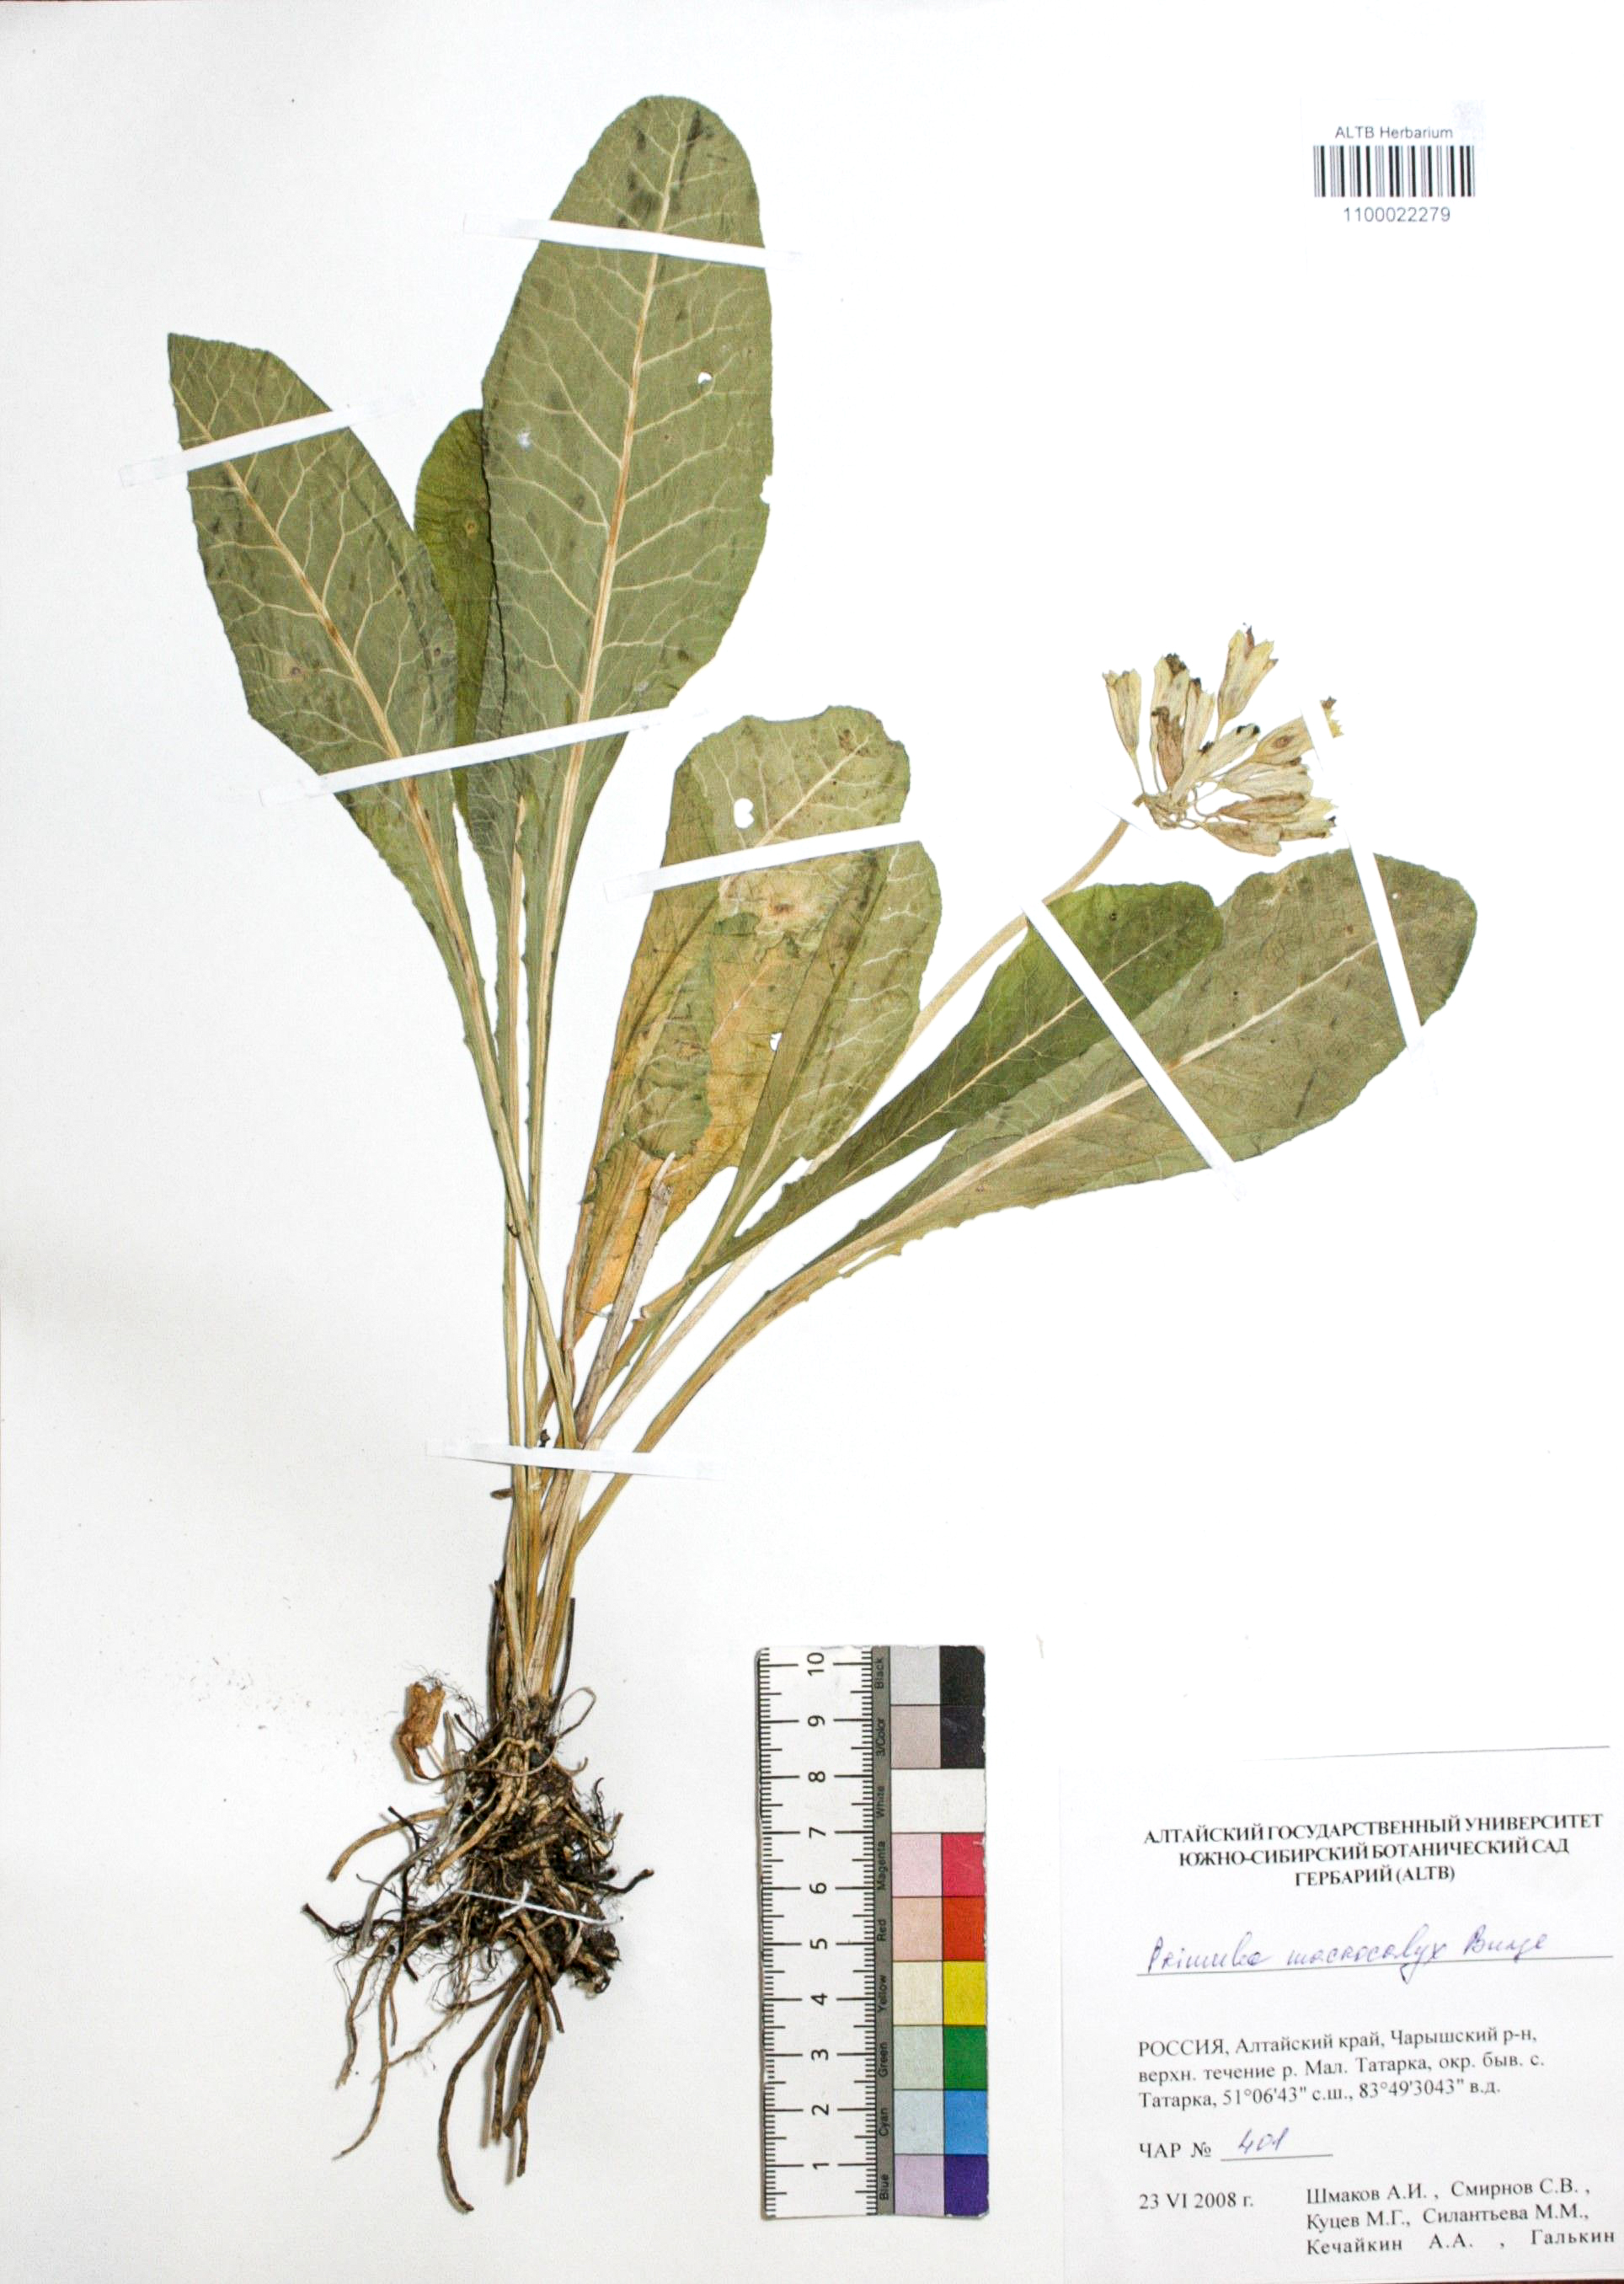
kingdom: Plantae
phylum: Tracheophyta
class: Magnoliopsida
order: Ericales
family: Primulaceae
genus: Primula
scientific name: Primula veris
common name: Cowslip
